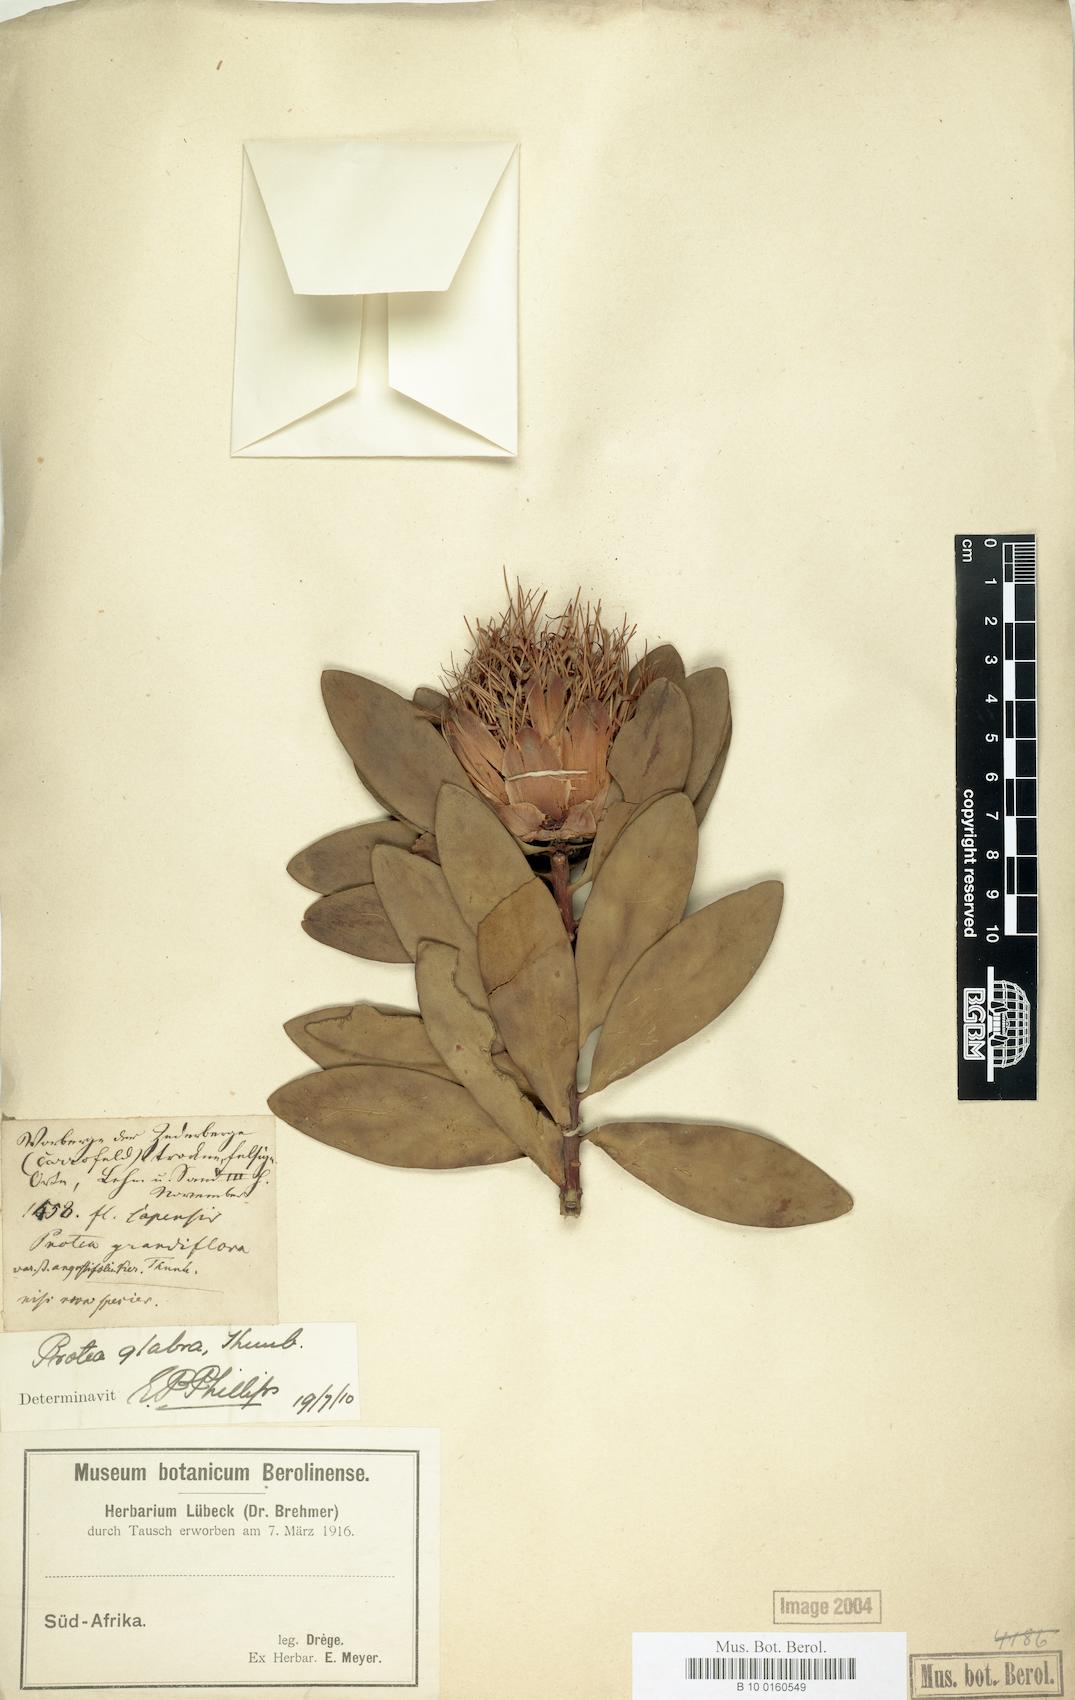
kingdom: Plantae
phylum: Tracheophyta
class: Magnoliopsida
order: Proteales
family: Proteaceae
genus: Protea
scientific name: Protea glabra
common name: Chestnut sugarbush
